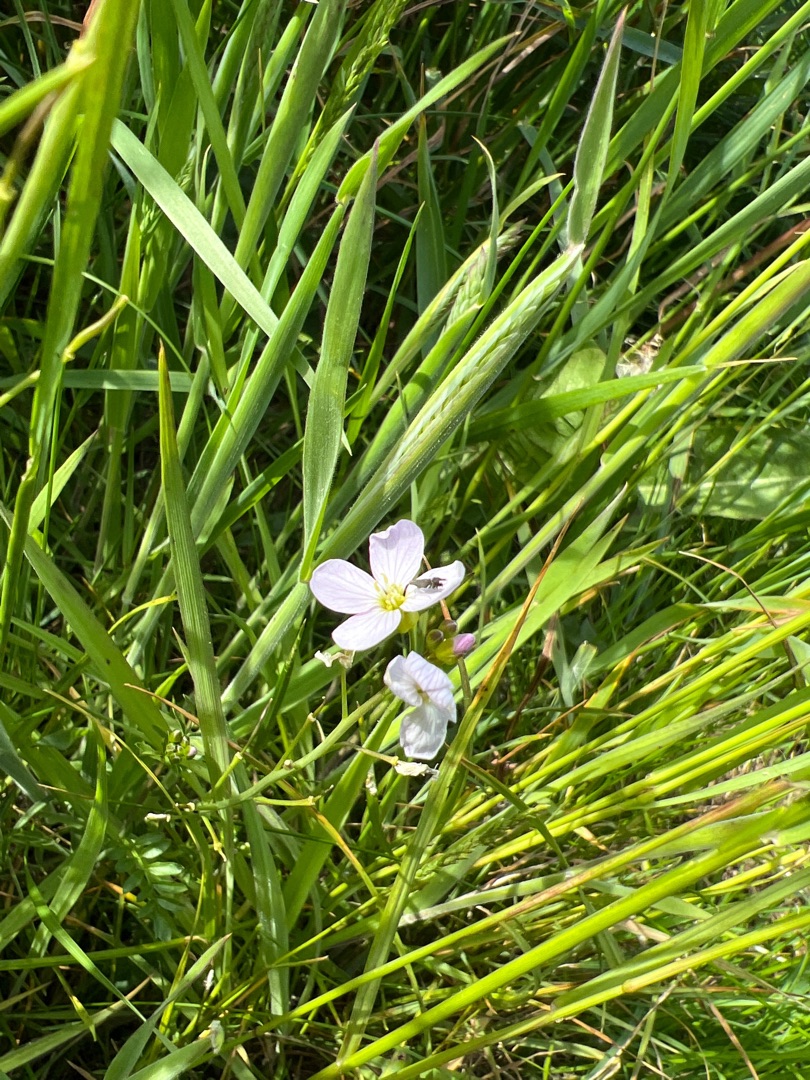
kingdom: Plantae
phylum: Tracheophyta
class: Magnoliopsida
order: Brassicales
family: Brassicaceae
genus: Cardamine
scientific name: Cardamine pratensis
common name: Almindelig engkarse
